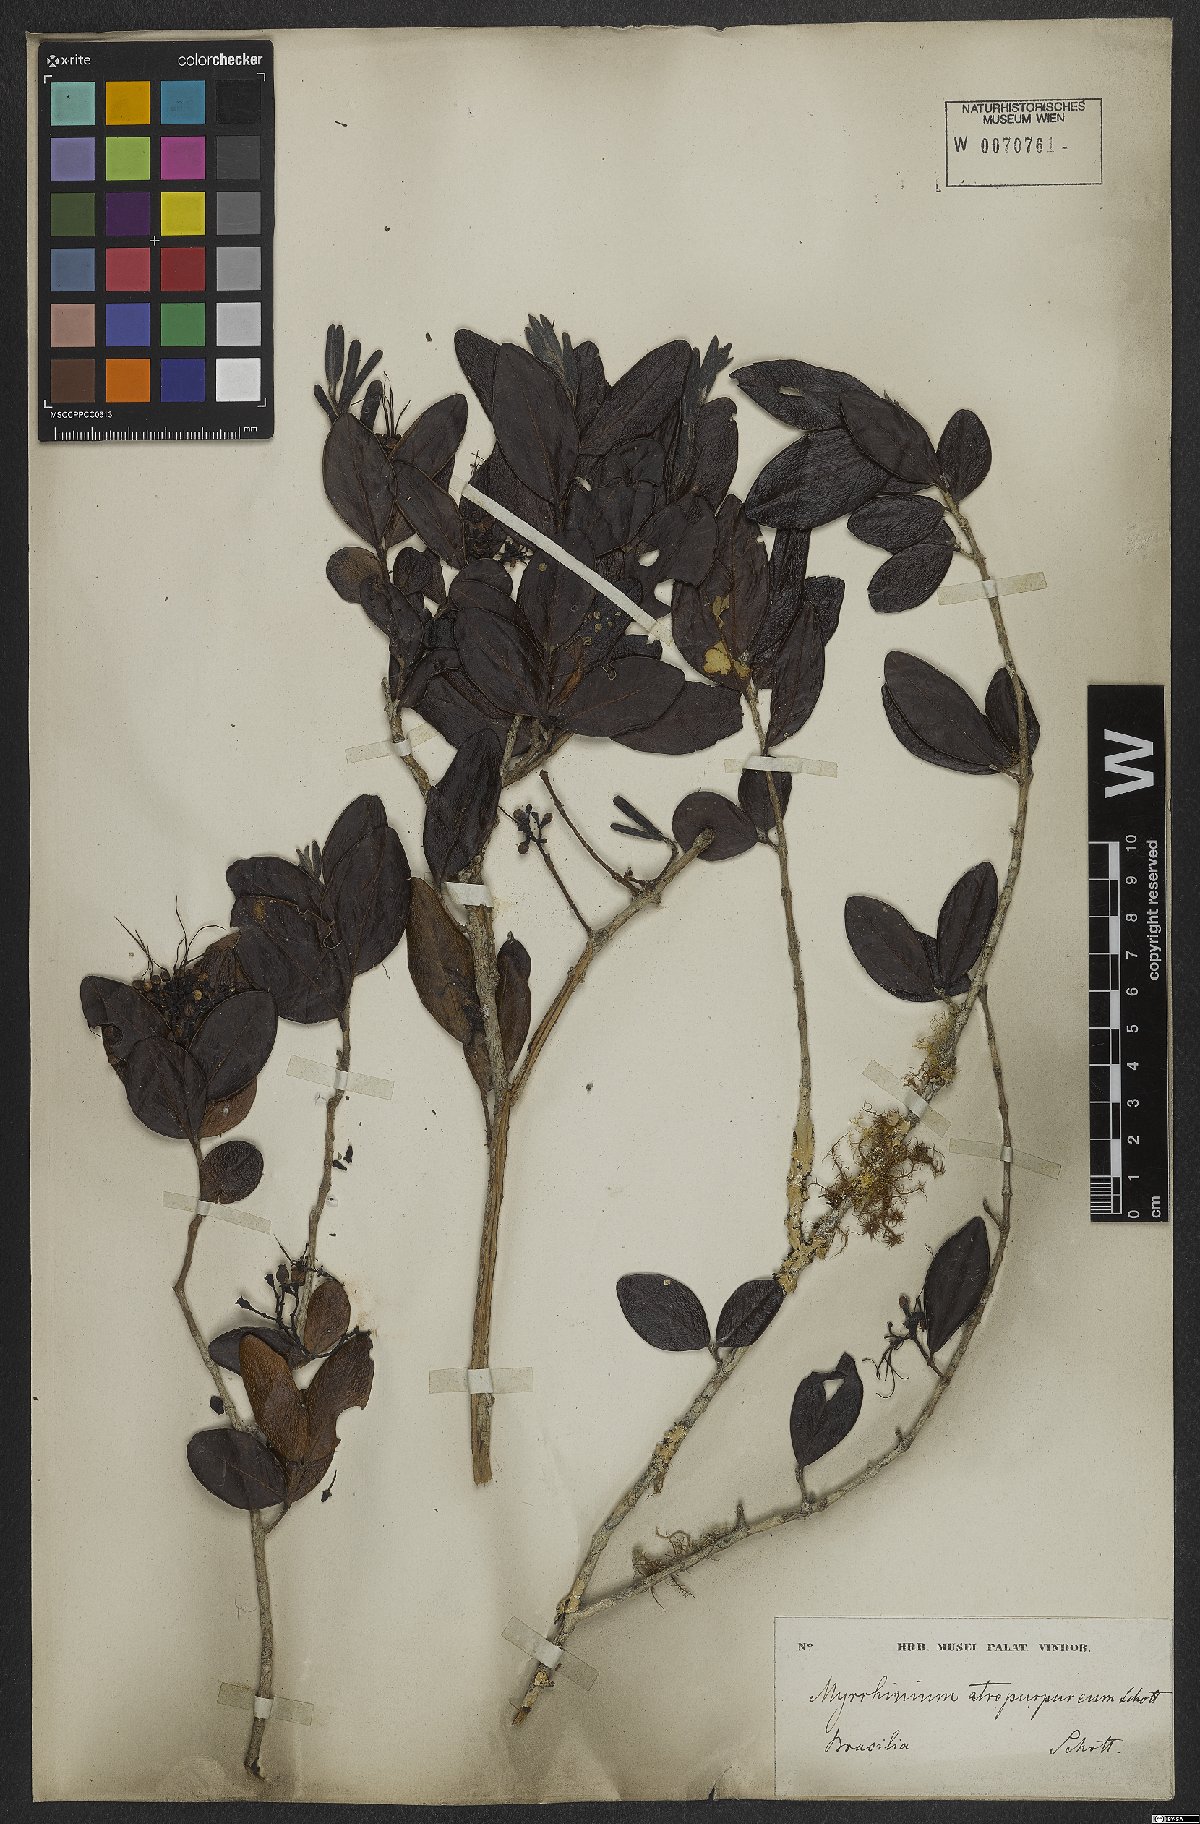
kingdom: Plantae
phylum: Tracheophyta
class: Magnoliopsida
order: Myrtales
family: Myrtaceae
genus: Myrrhinium
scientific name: Myrrhinium atropurpureum
